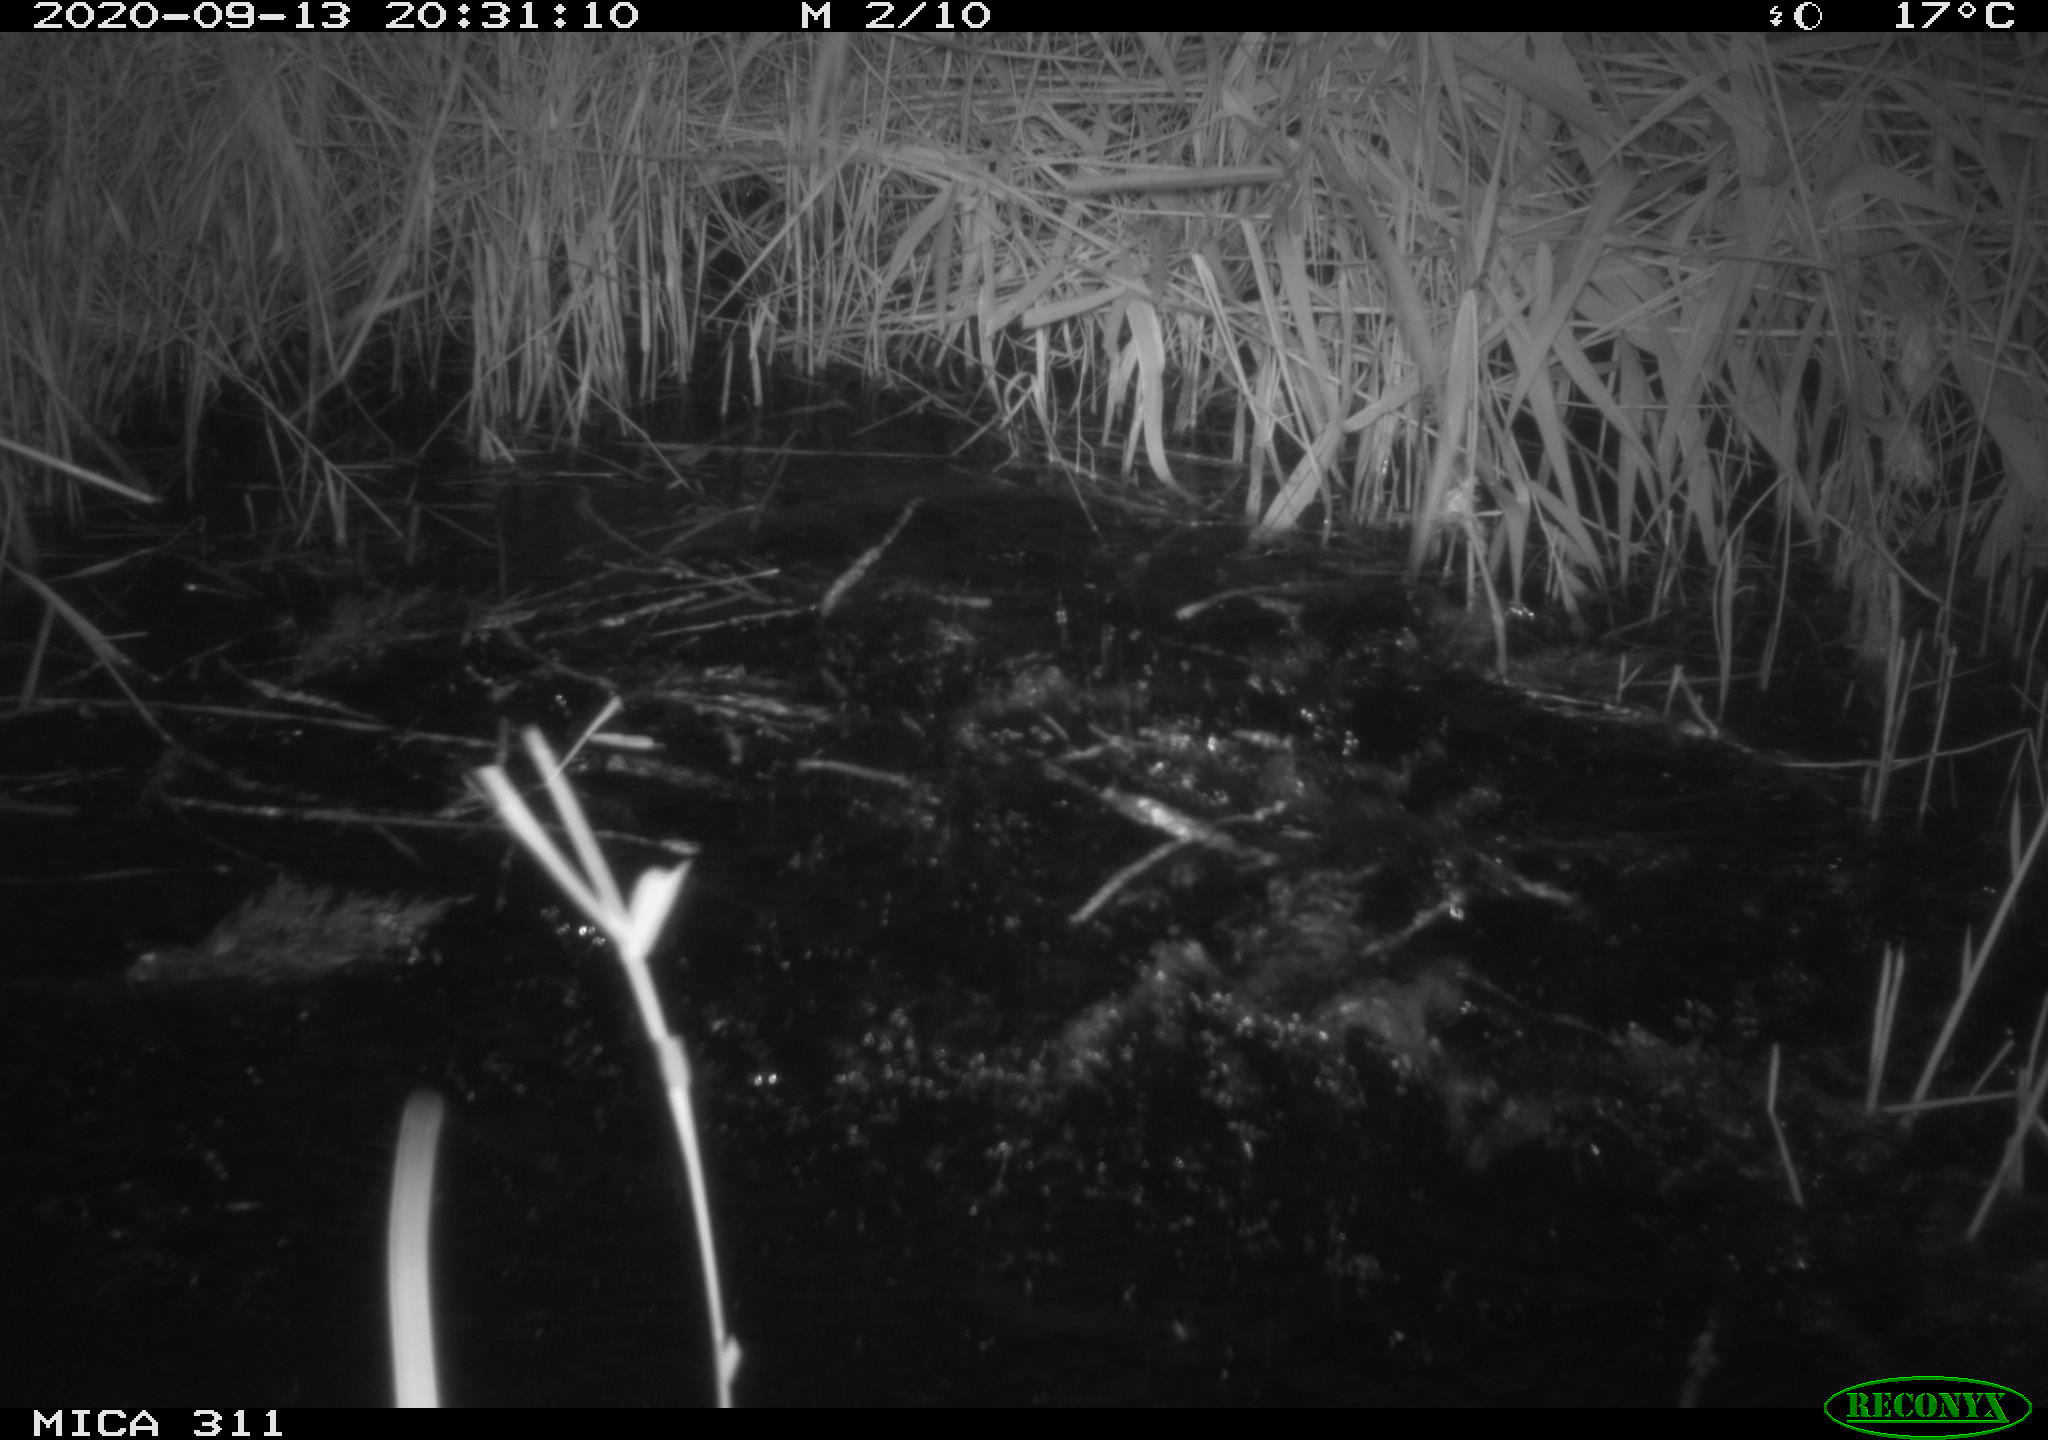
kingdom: Animalia
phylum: Chordata
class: Aves
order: Anseriformes
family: Anatidae
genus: Anas
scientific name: Anas platyrhynchos
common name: Mallard
